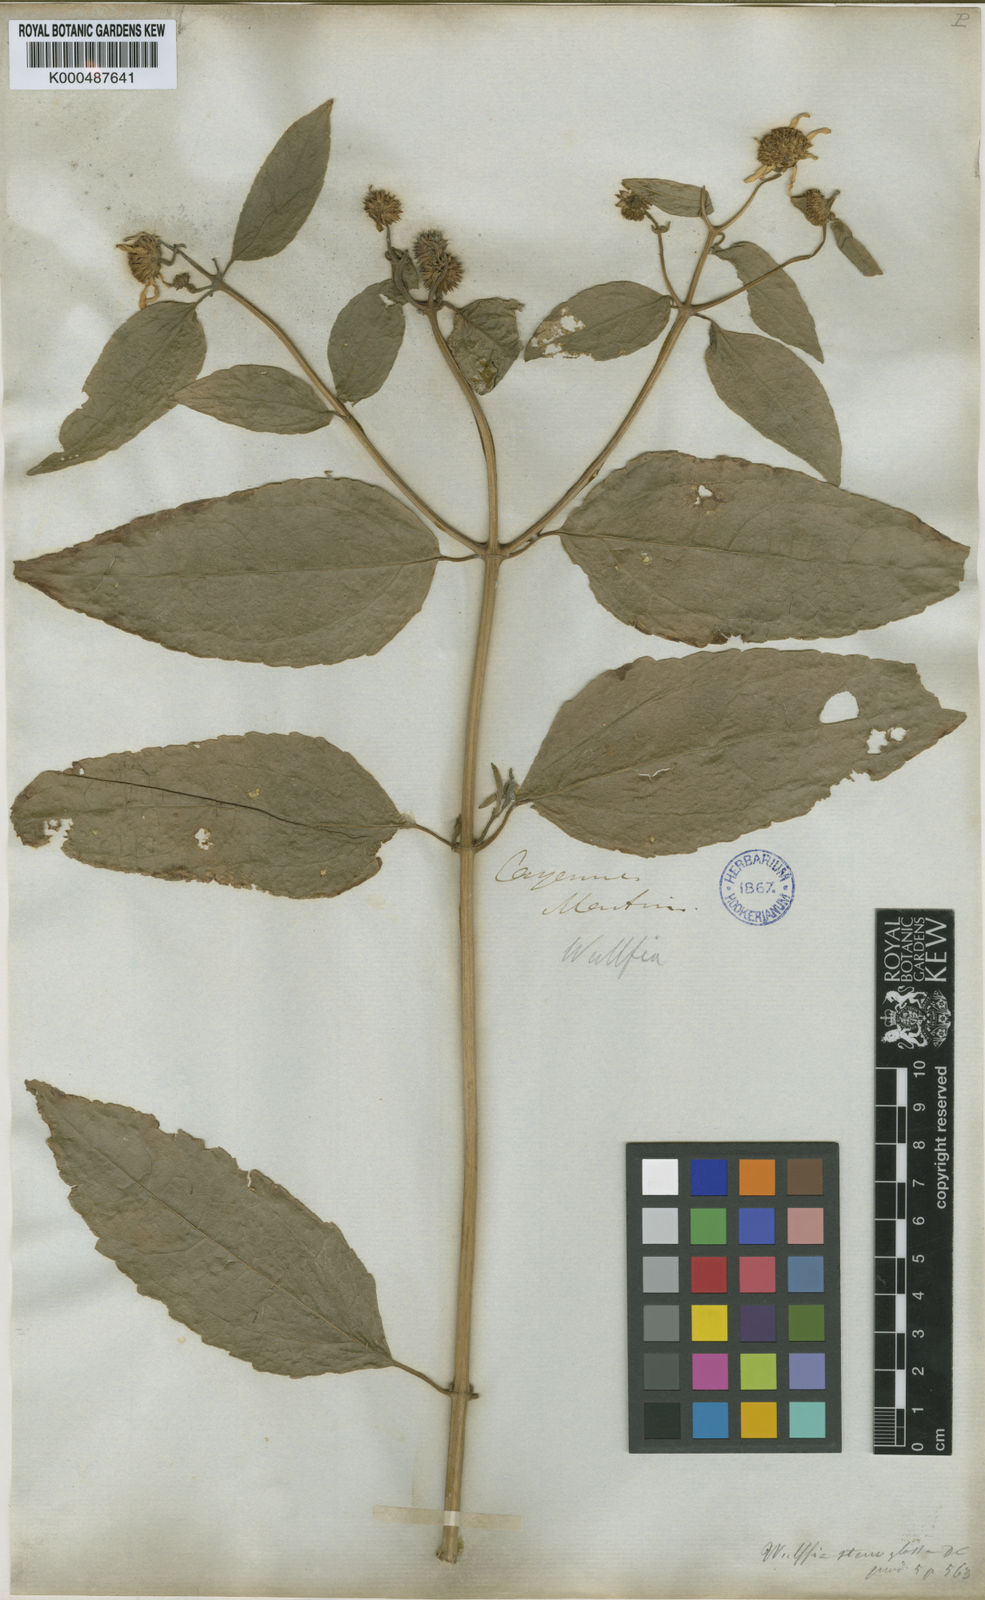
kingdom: Plantae
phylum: Tracheophyta
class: Magnoliopsida
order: Asterales
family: Asteraceae
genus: Tilesia
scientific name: Tilesia baccata
